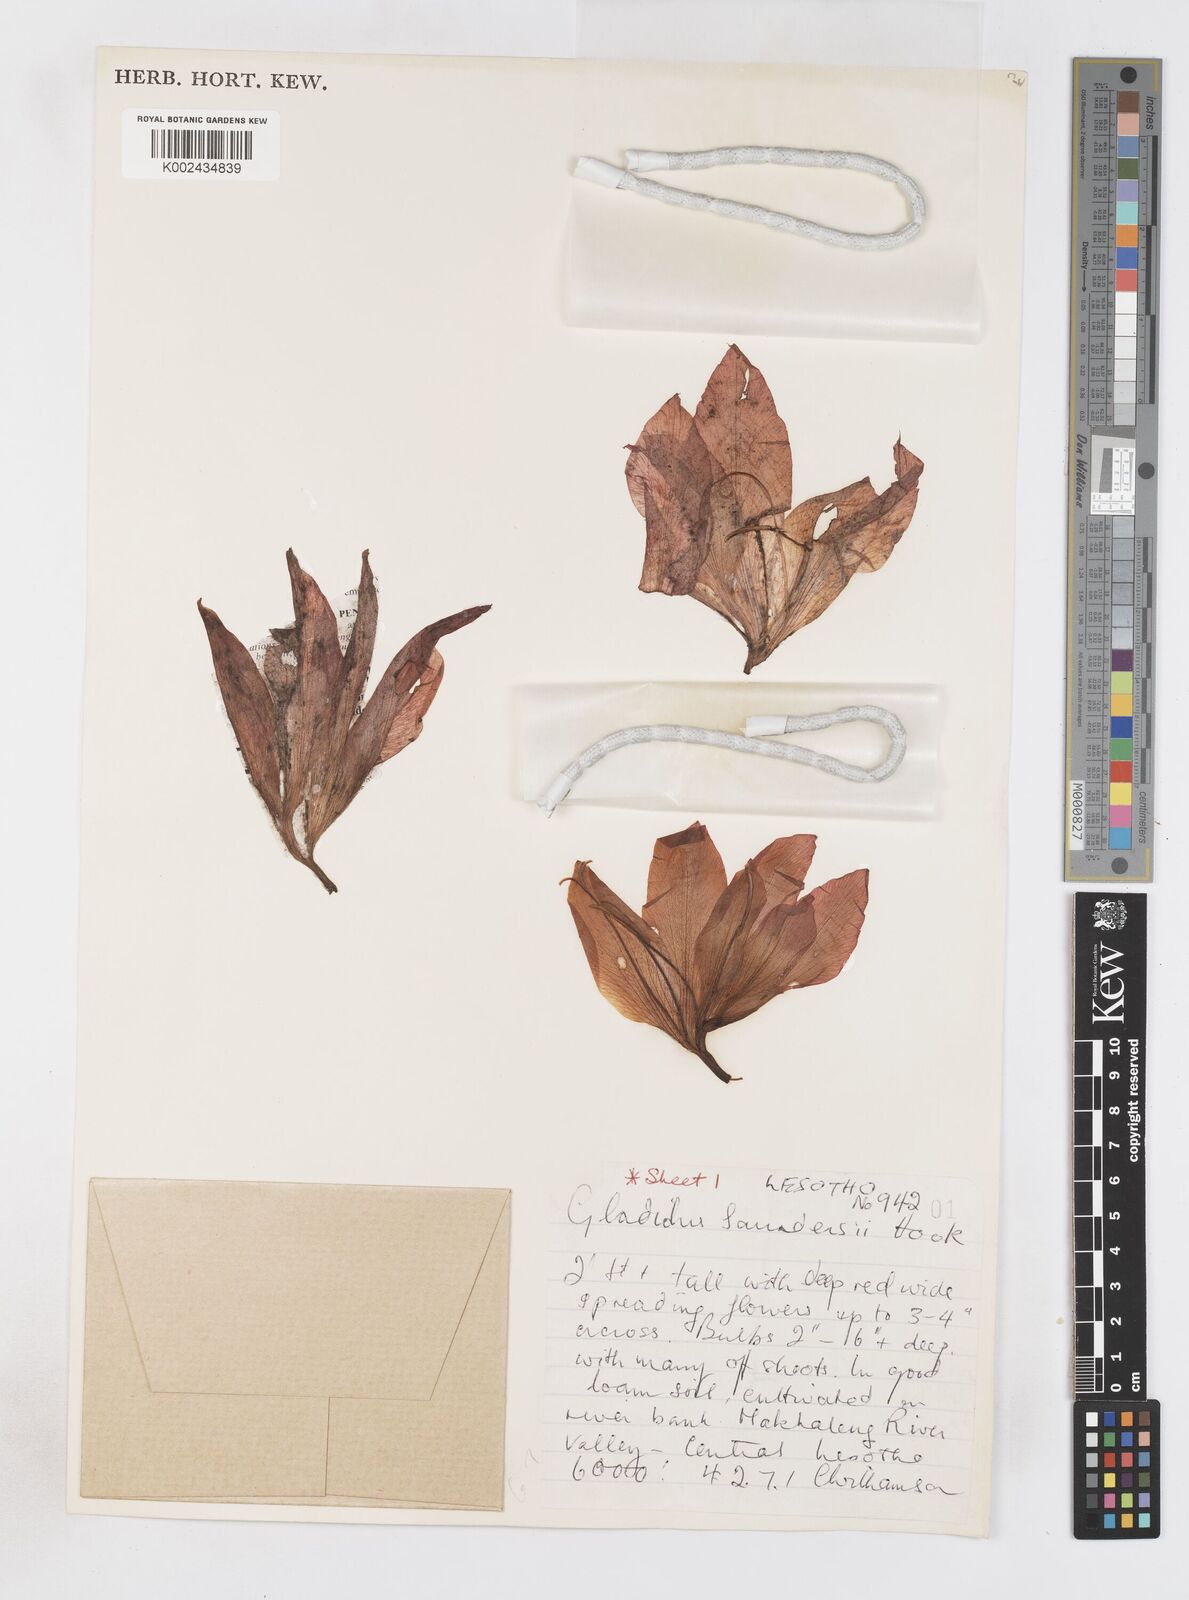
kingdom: Plantae
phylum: Tracheophyta
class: Liliopsida
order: Asparagales
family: Iridaceae
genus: Gladiolus
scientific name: Gladiolus saundersii
